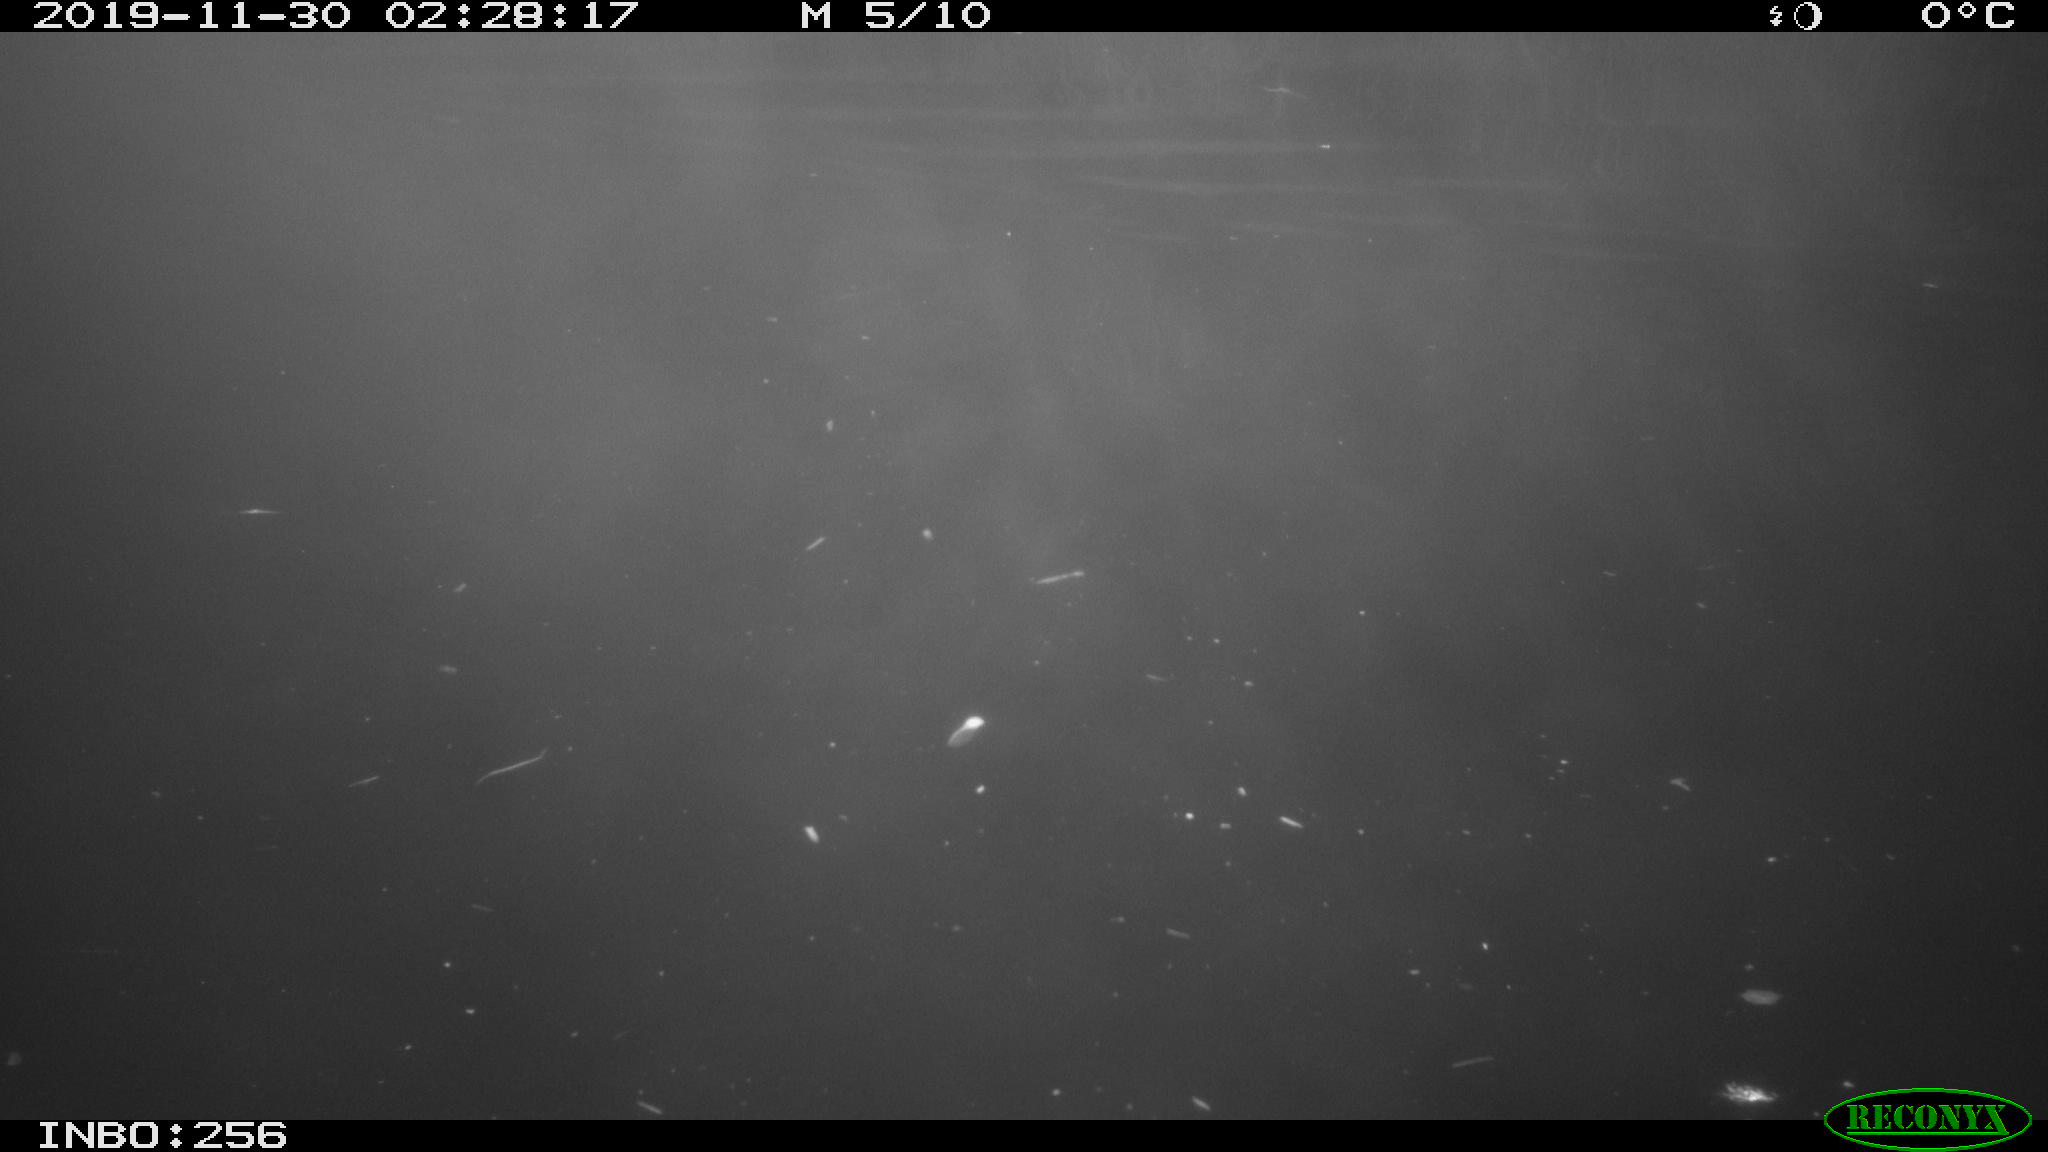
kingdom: Animalia
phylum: Chordata
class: Mammalia
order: Rodentia
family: Cricetidae
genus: Ondatra
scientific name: Ondatra zibethicus
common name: Muskrat
